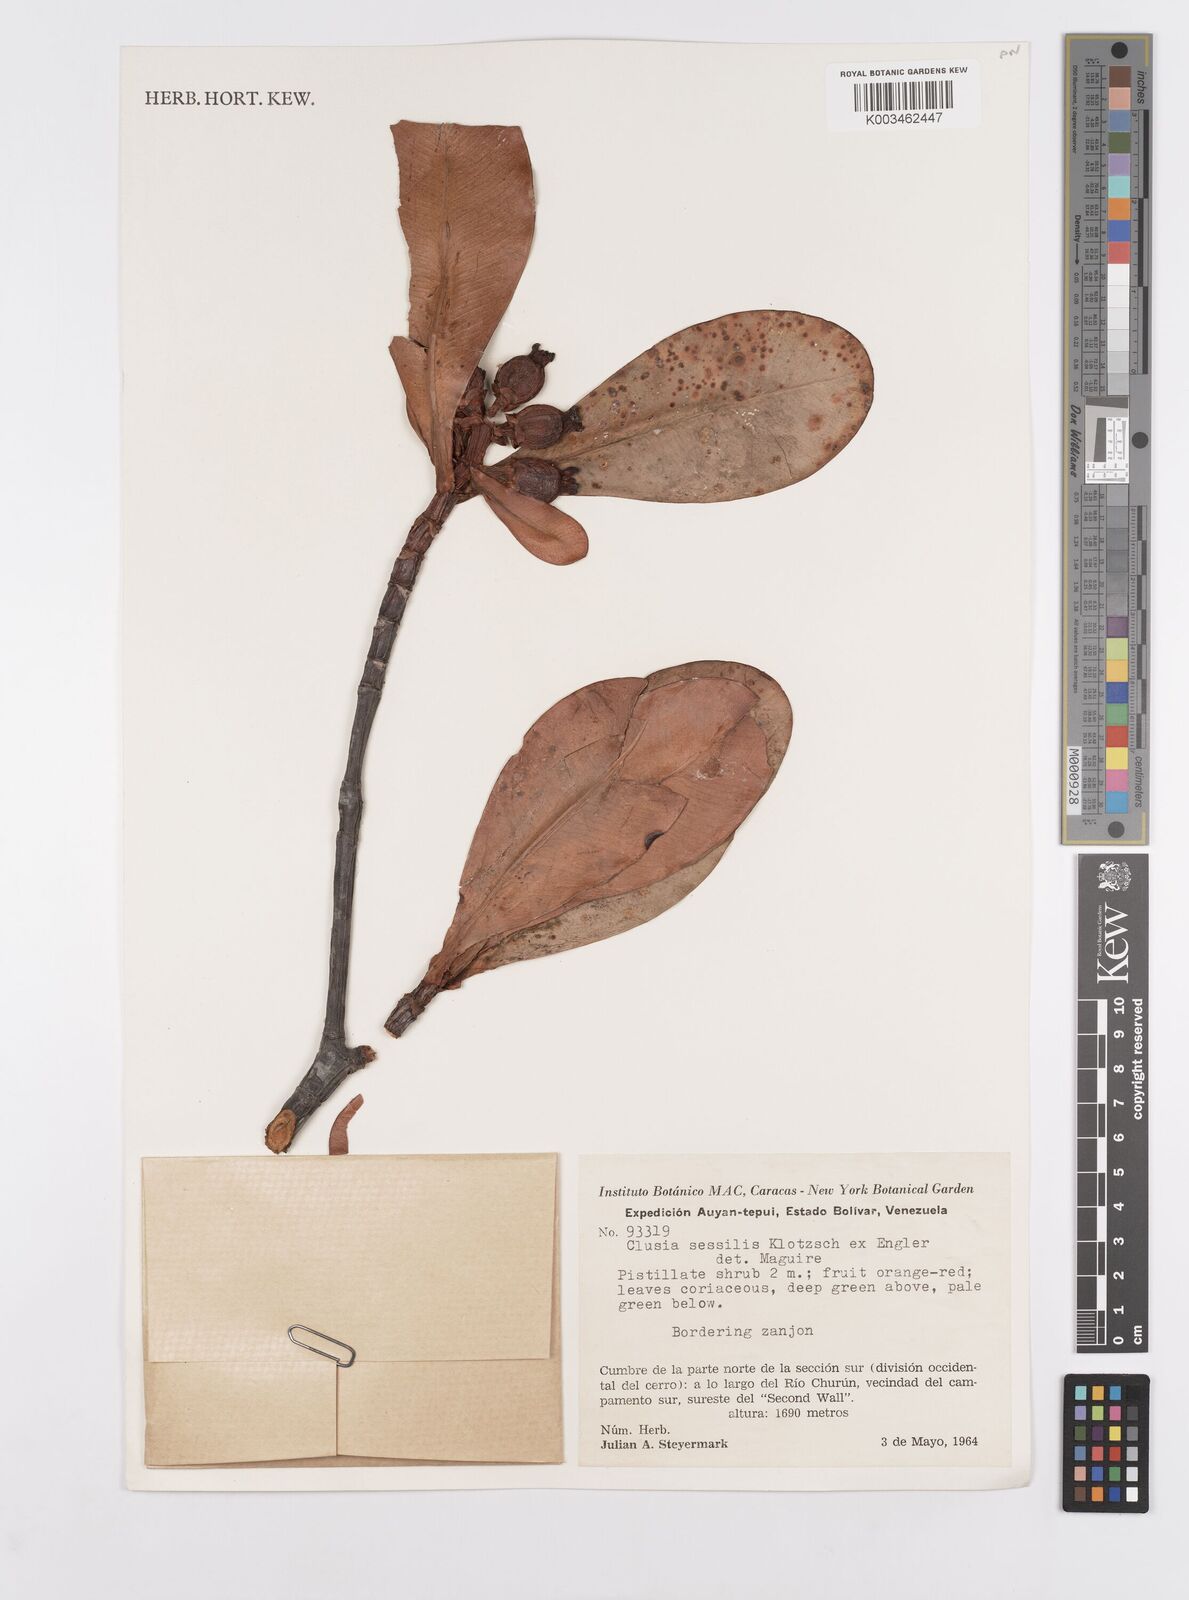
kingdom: Plantae
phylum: Tracheophyta
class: Magnoliopsida
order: Malpighiales
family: Clusiaceae
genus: Garcinia
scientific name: Garcinia sessilis
